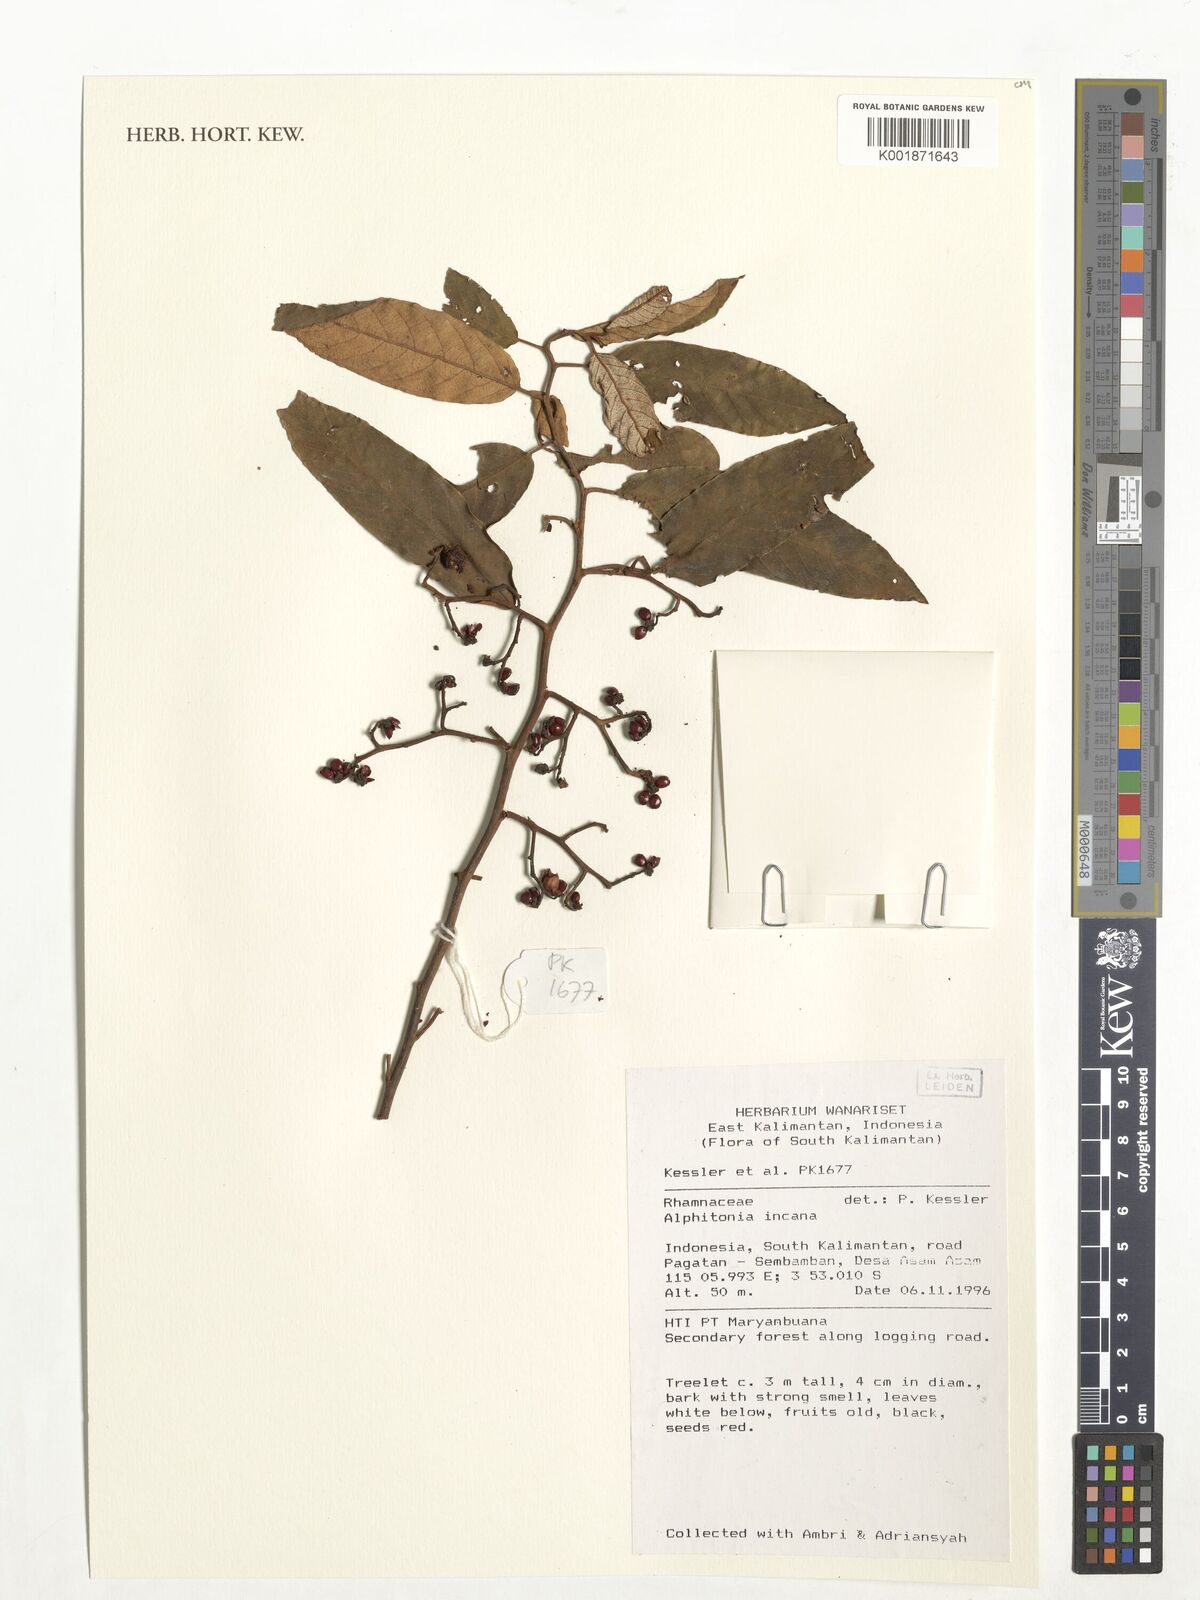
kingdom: Plantae
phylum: Tracheophyta
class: Magnoliopsida
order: Rosales
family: Rhamnaceae
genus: Alphitonia
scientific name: Alphitonia incana
